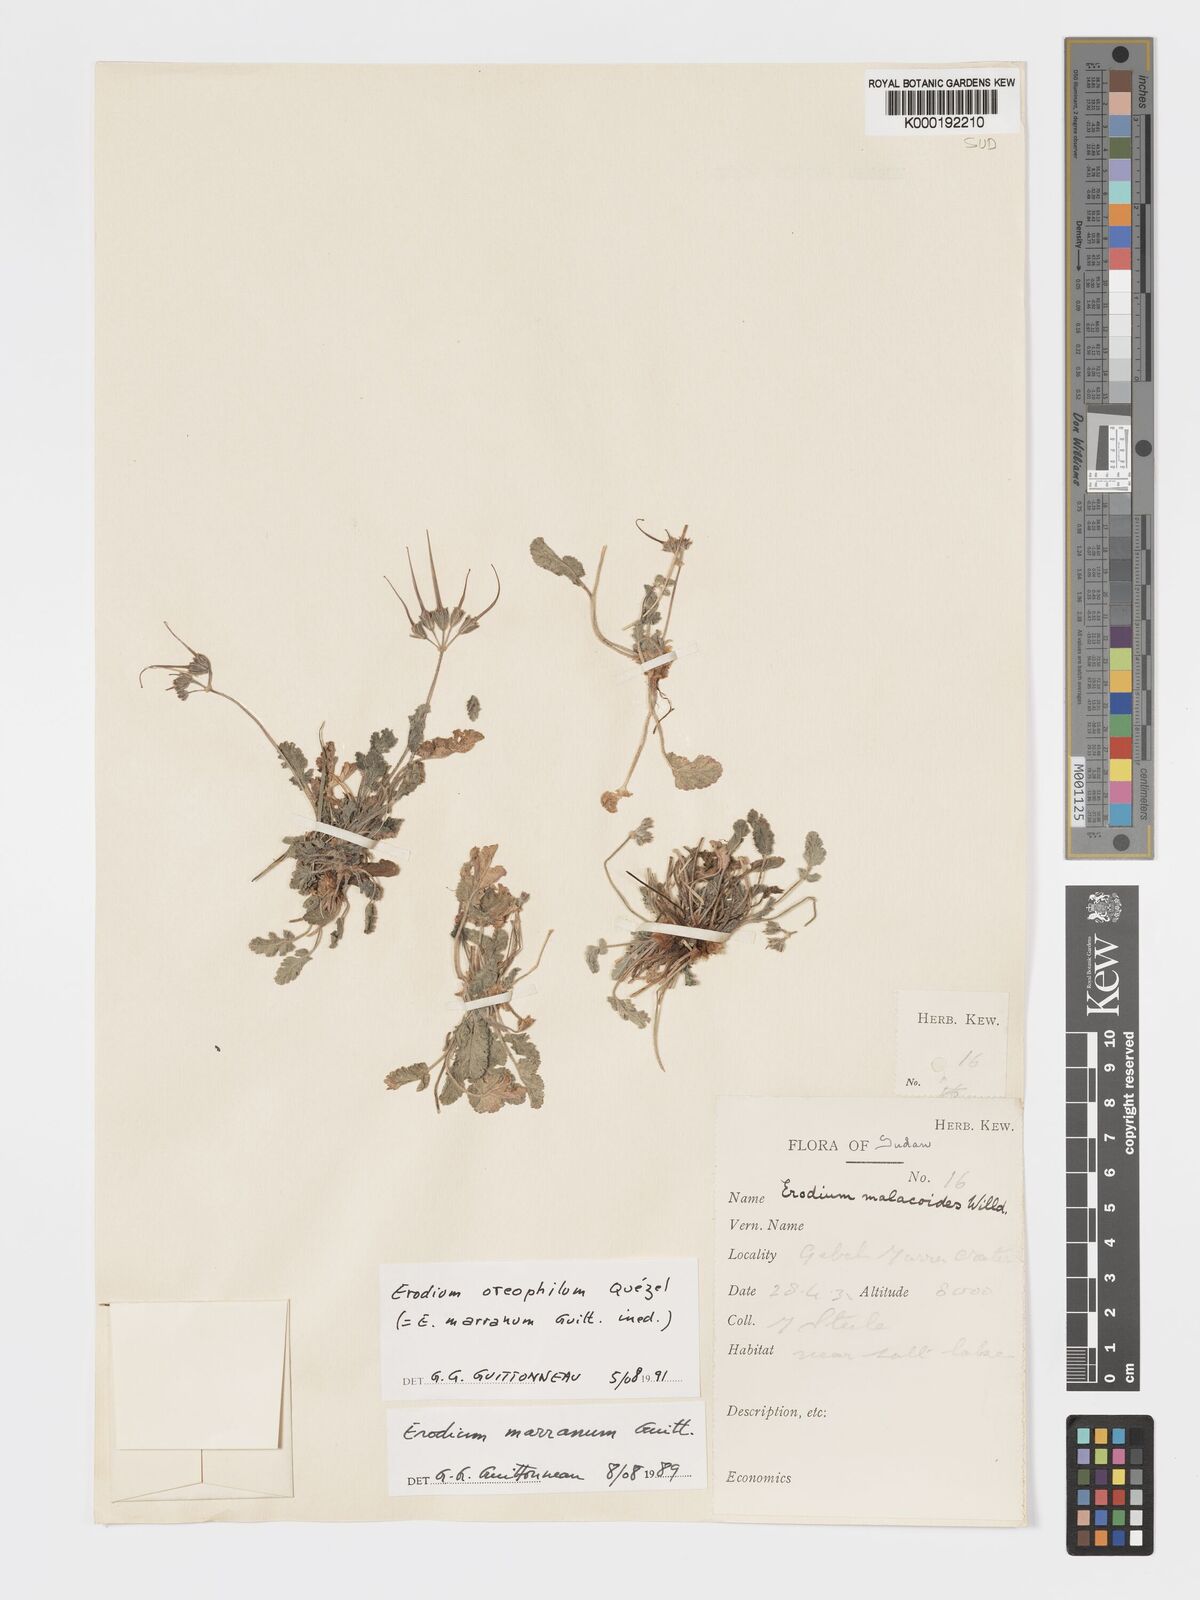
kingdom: Plantae
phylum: Tracheophyta
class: Magnoliopsida
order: Geraniales
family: Geraniaceae
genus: Erodium
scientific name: Erodium oreophilum
